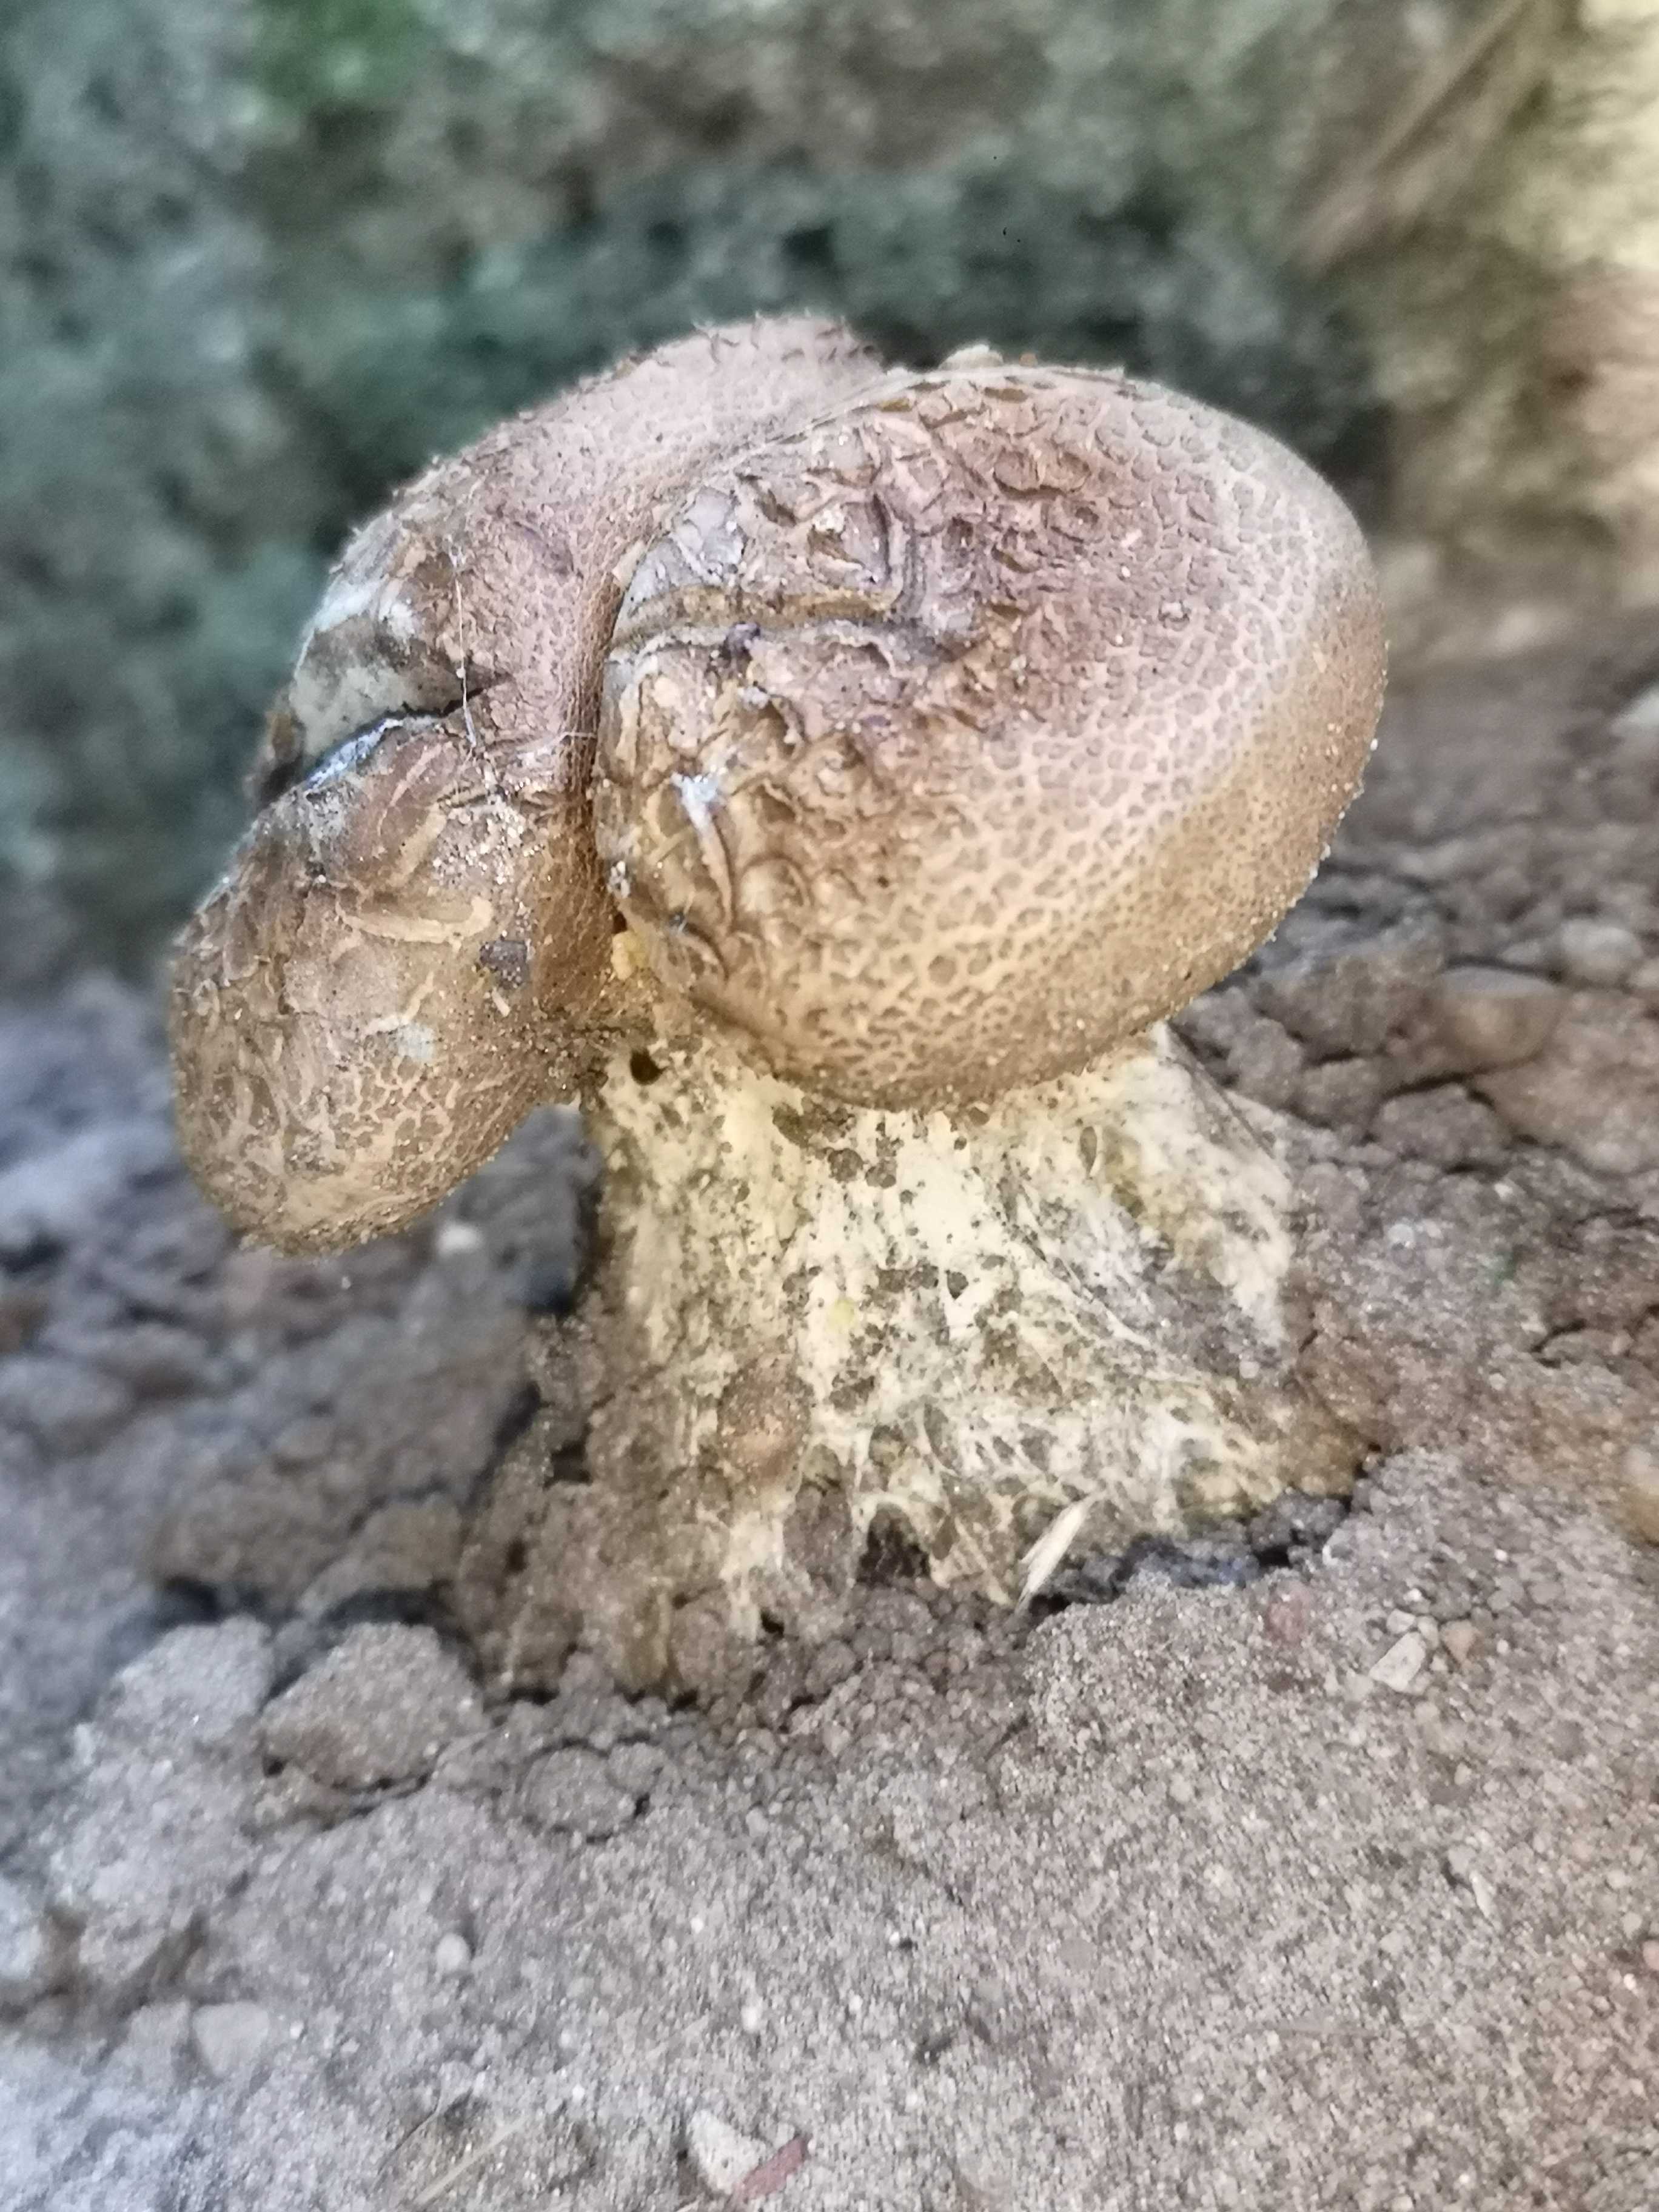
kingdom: Fungi
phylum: Basidiomycota
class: Agaricomycetes
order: Boletales
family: Sclerodermataceae
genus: Scleroderma
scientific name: Scleroderma verrucosum
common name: stilket bruskbold
